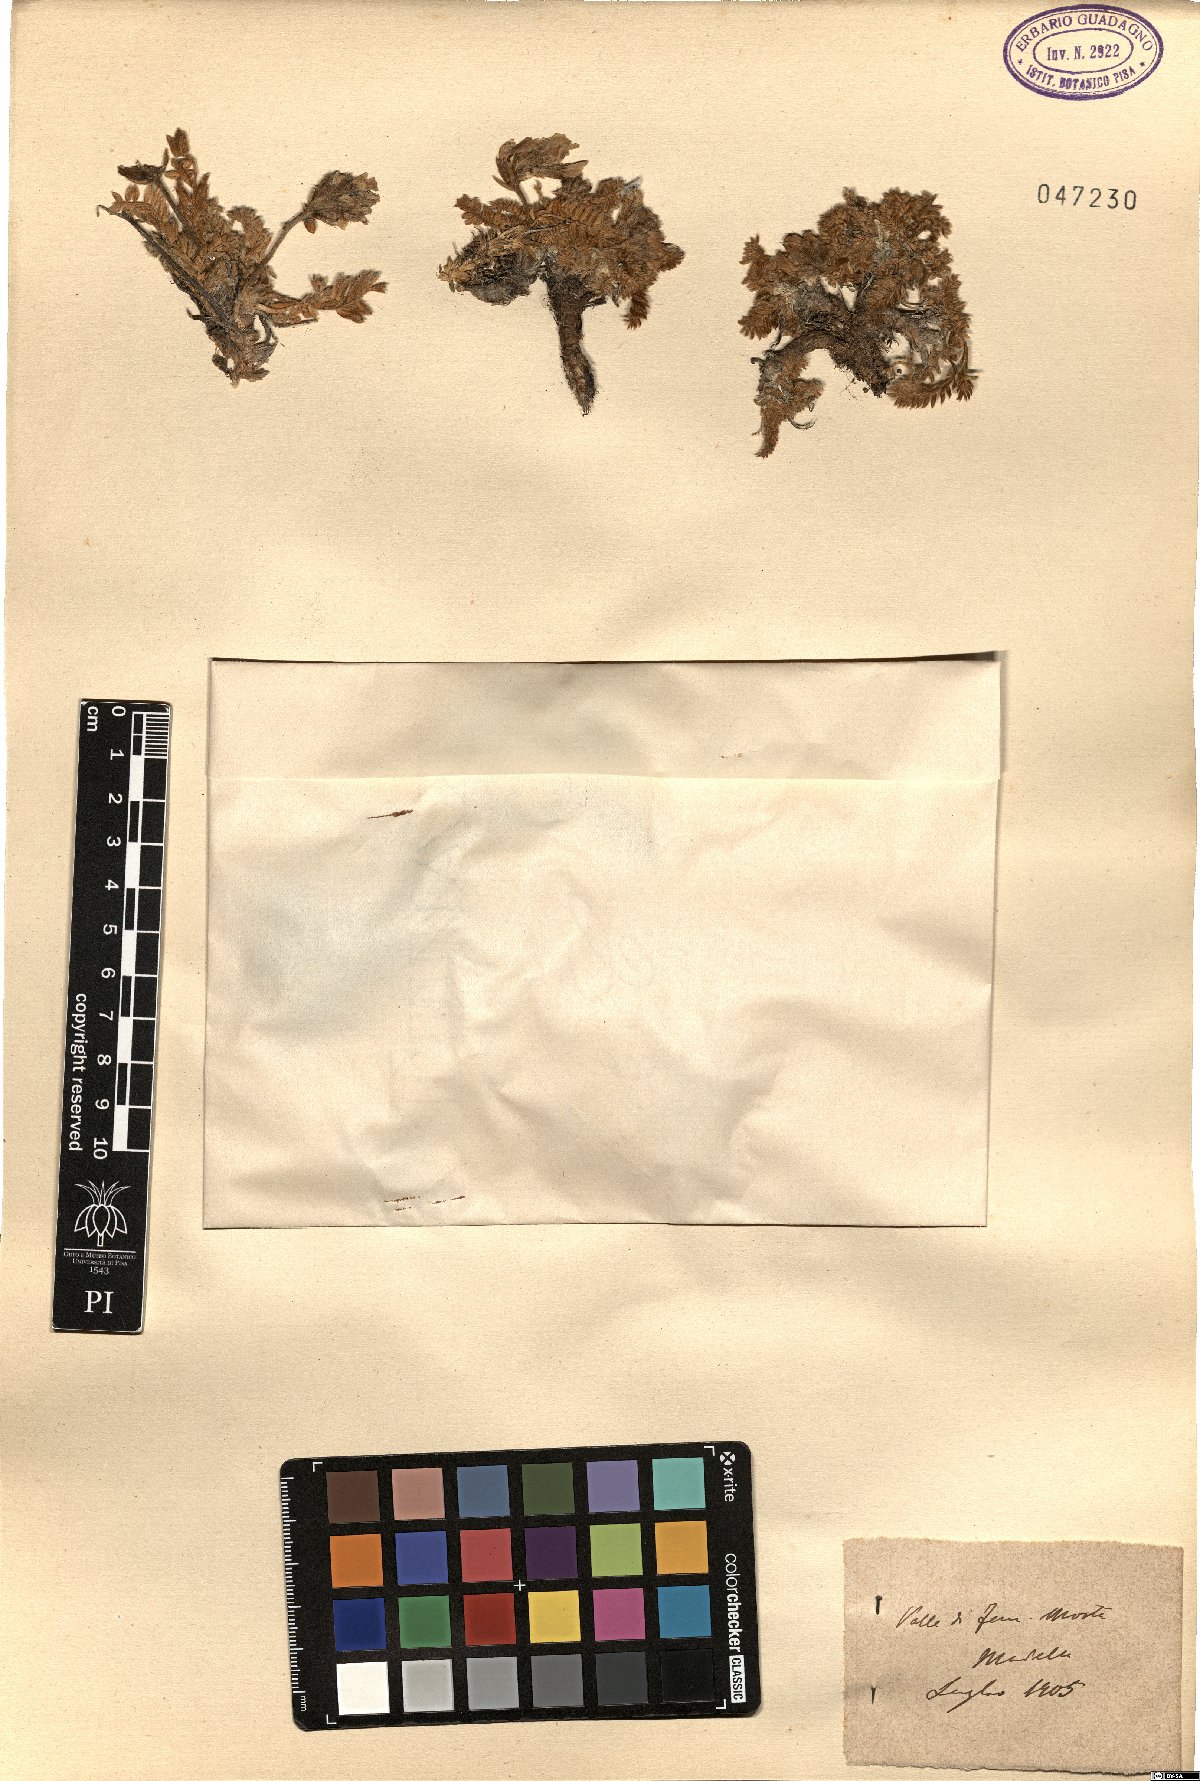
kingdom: Plantae
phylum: Tracheophyta
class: Magnoliopsida
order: Fabales
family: Fabaceae
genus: Oxytropis
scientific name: Oxytropis
